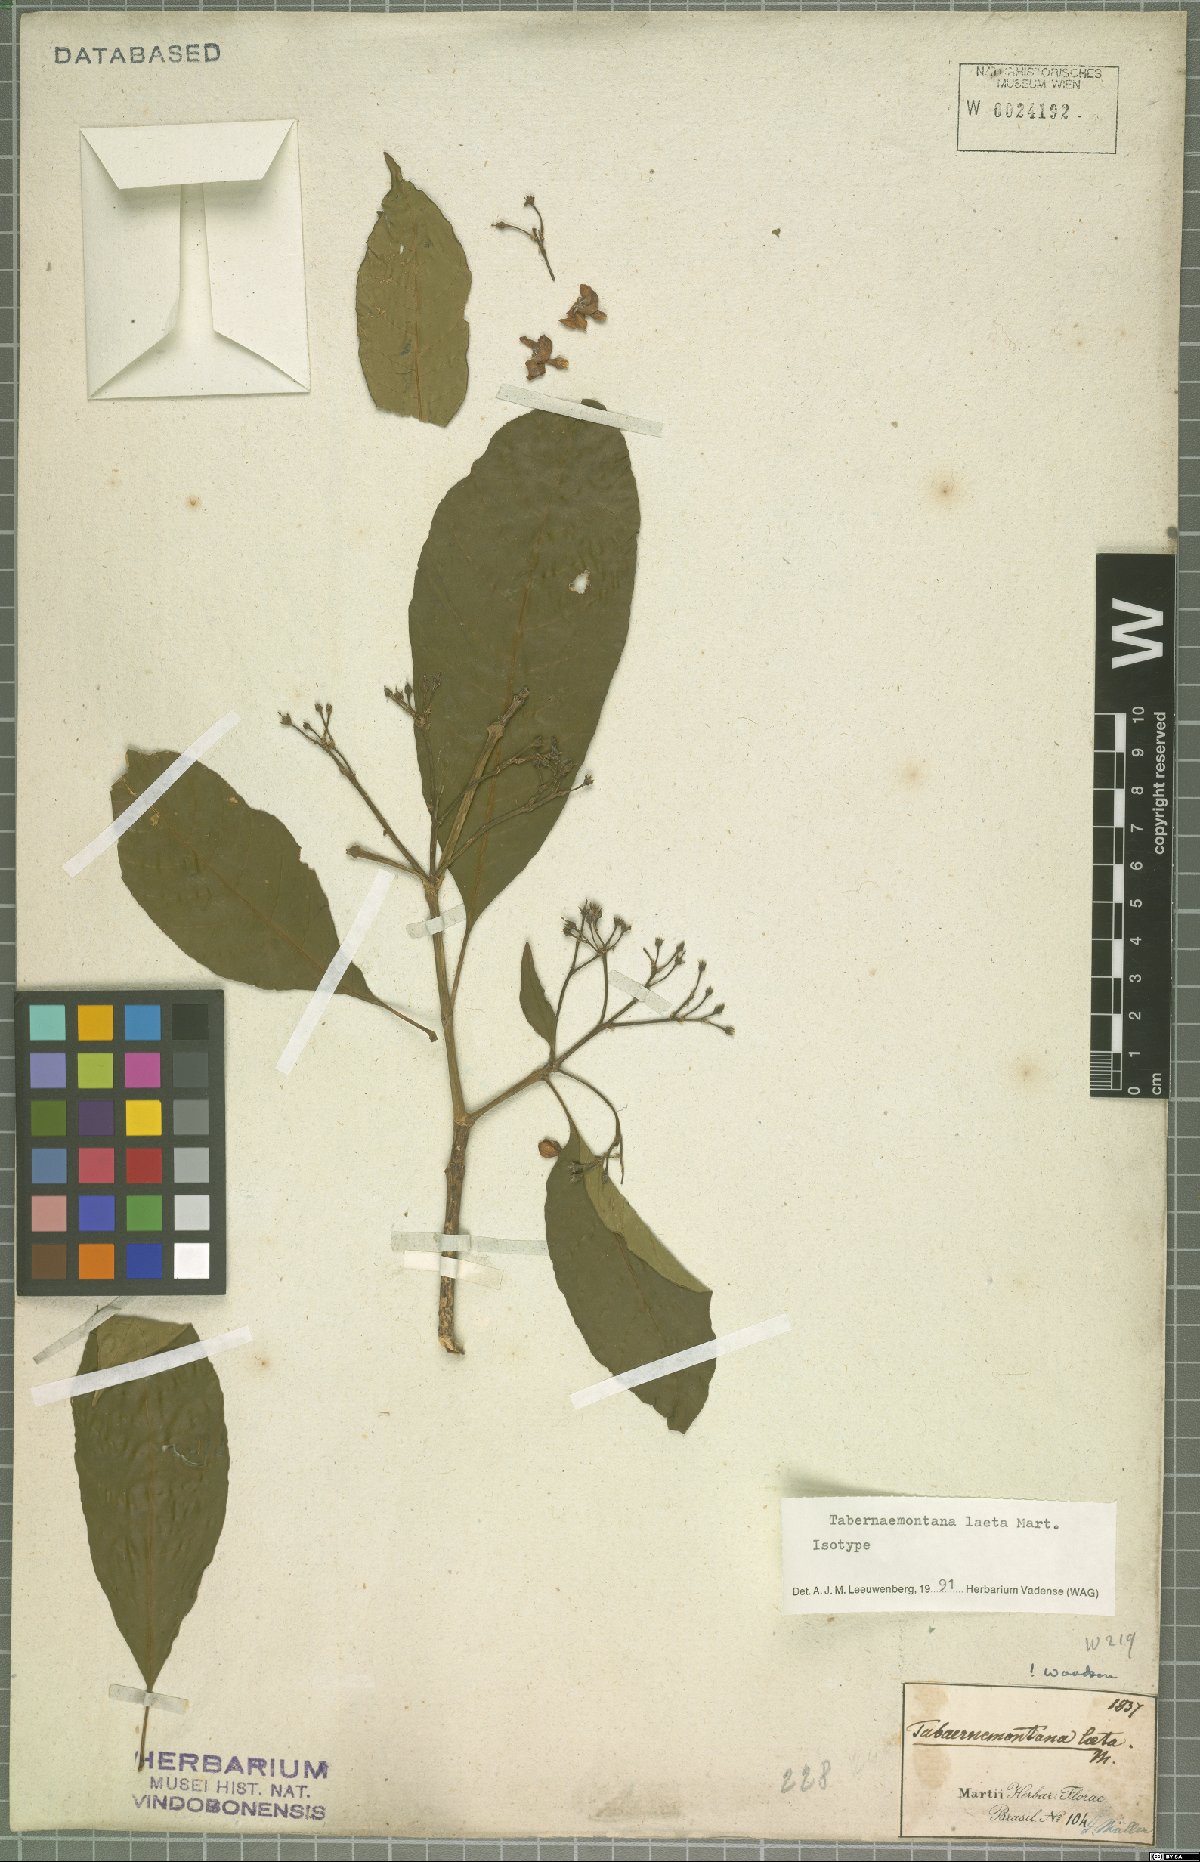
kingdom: Plantae
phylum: Tracheophyta
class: Magnoliopsida
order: Gentianales
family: Apocynaceae
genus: Tabernaemontana
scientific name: Tabernaemontana laeta
